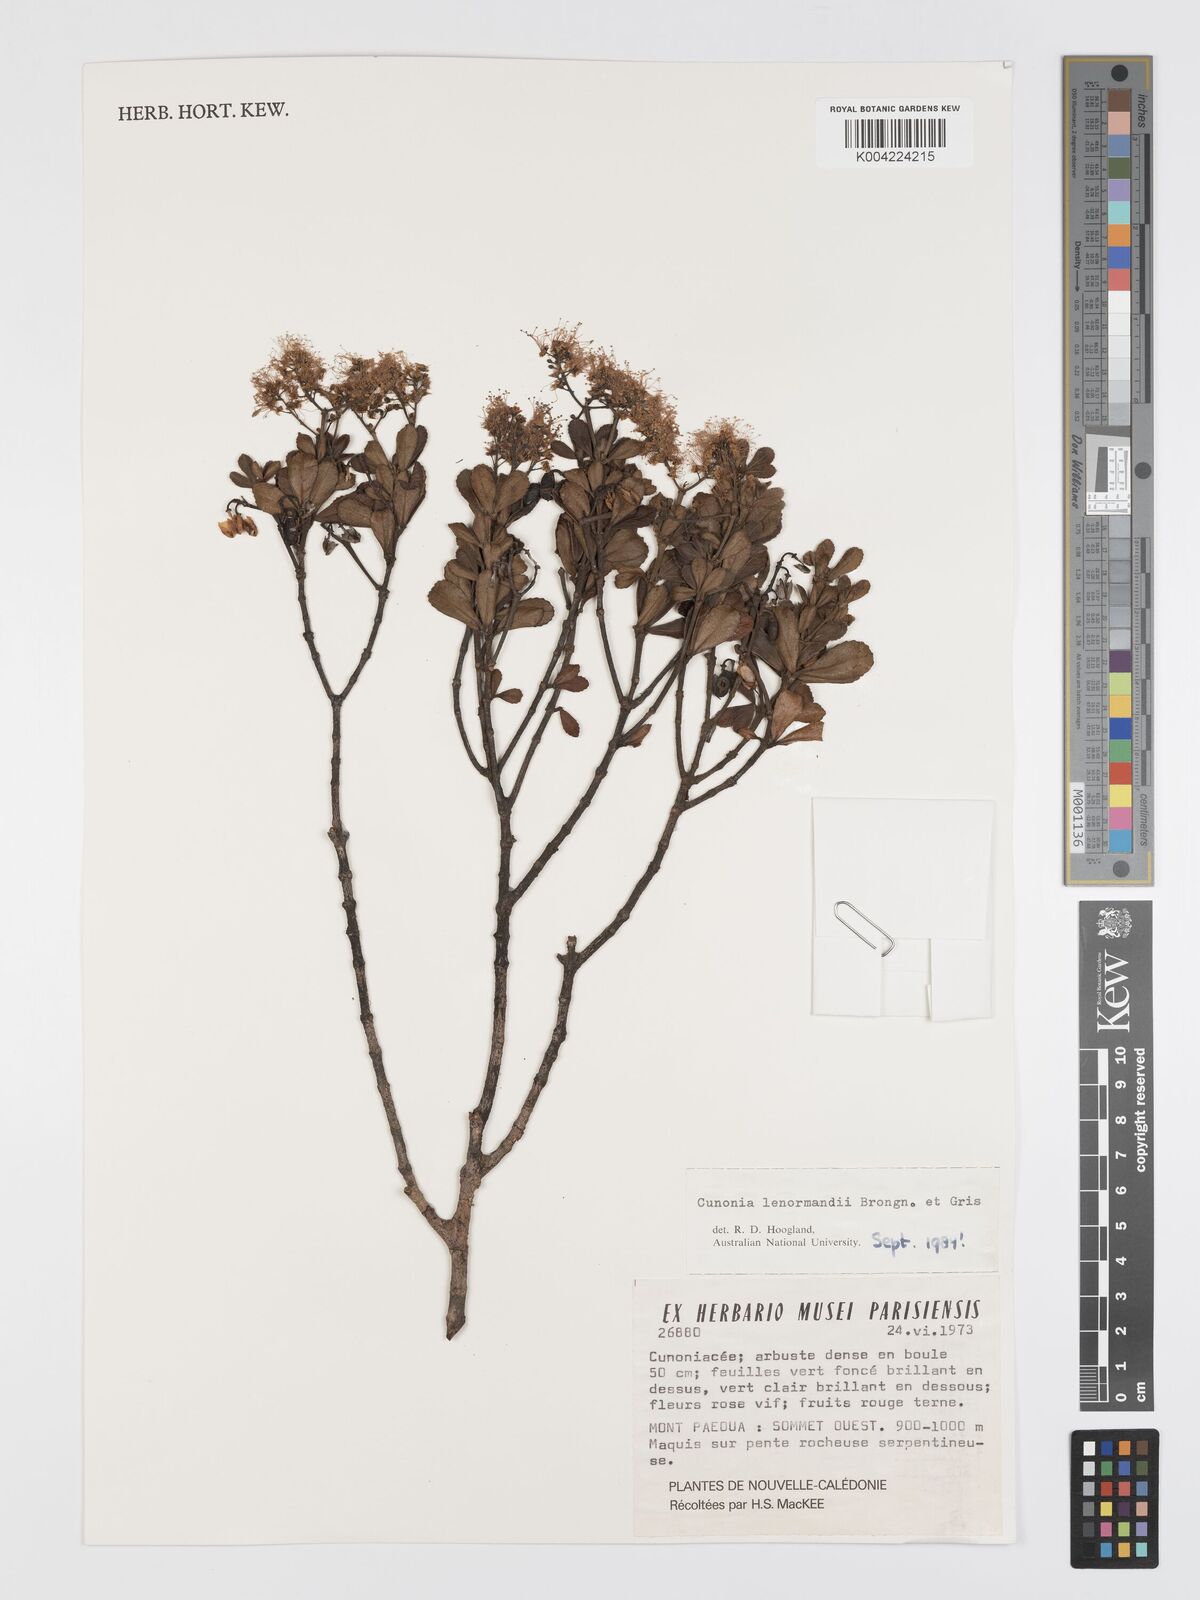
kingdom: Plantae
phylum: Tracheophyta
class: Magnoliopsida
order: Oxalidales
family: Cunoniaceae
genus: Cunonia
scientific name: Cunonia lenormandii
